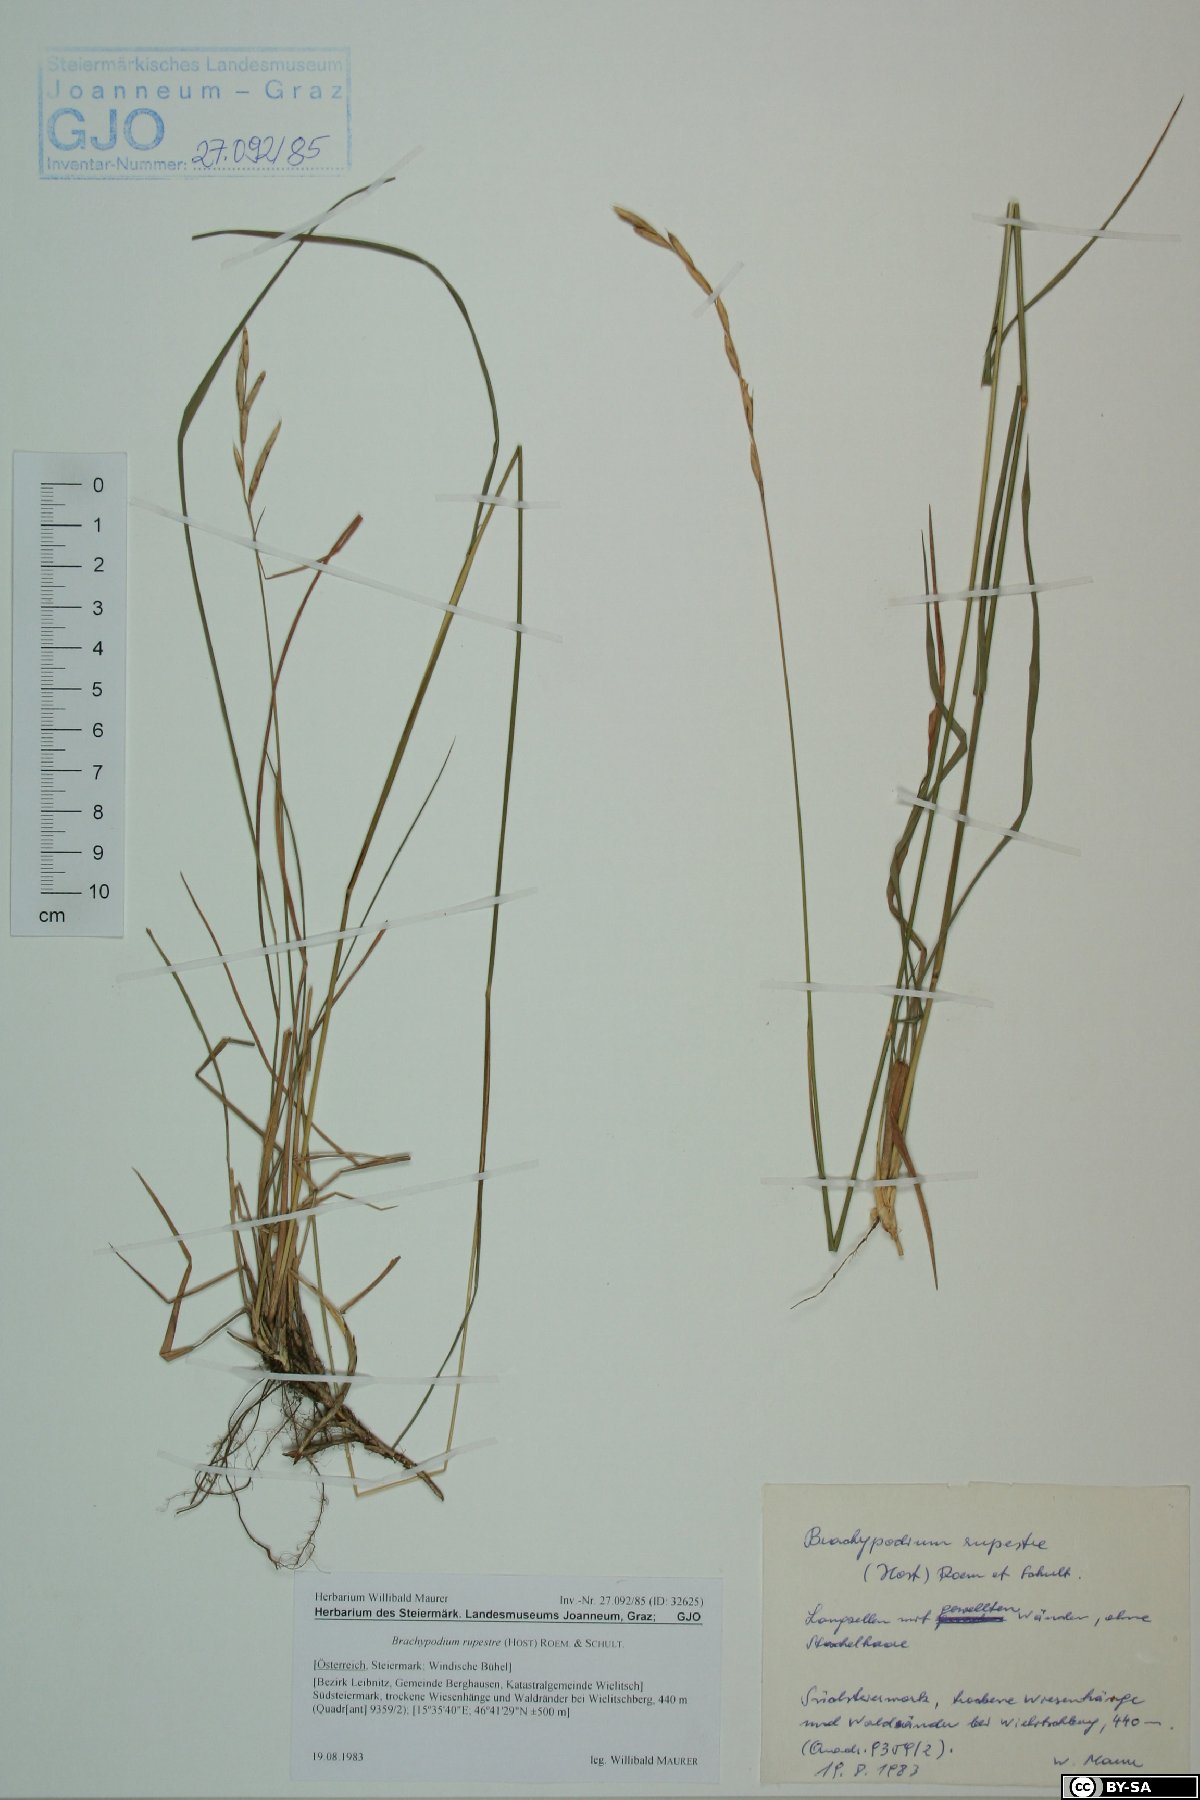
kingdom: Plantae
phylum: Tracheophyta
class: Liliopsida
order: Poales
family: Poaceae
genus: Brachypodium
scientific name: Brachypodium pinnatum
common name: Tor grass
